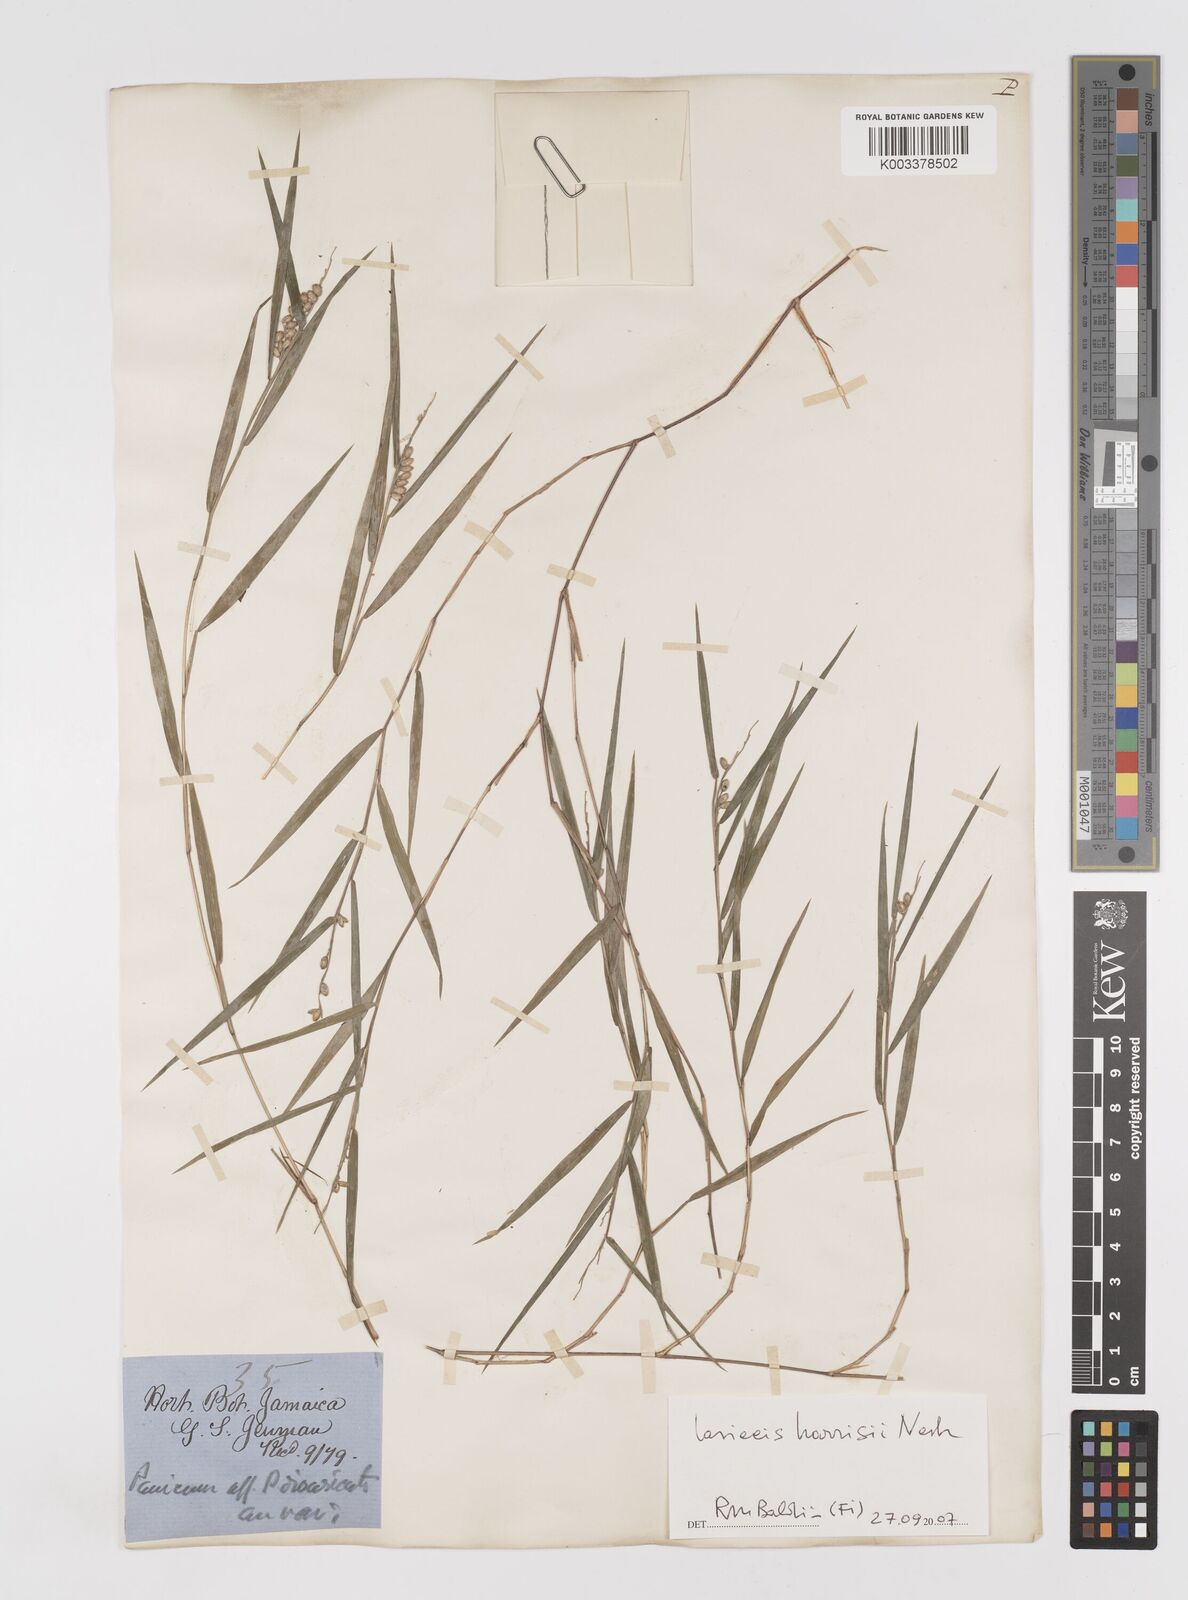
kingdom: Plantae
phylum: Tracheophyta
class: Liliopsida
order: Poales
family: Poaceae
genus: Lasiacis
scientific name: Lasiacis divaricata
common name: Smallcane
